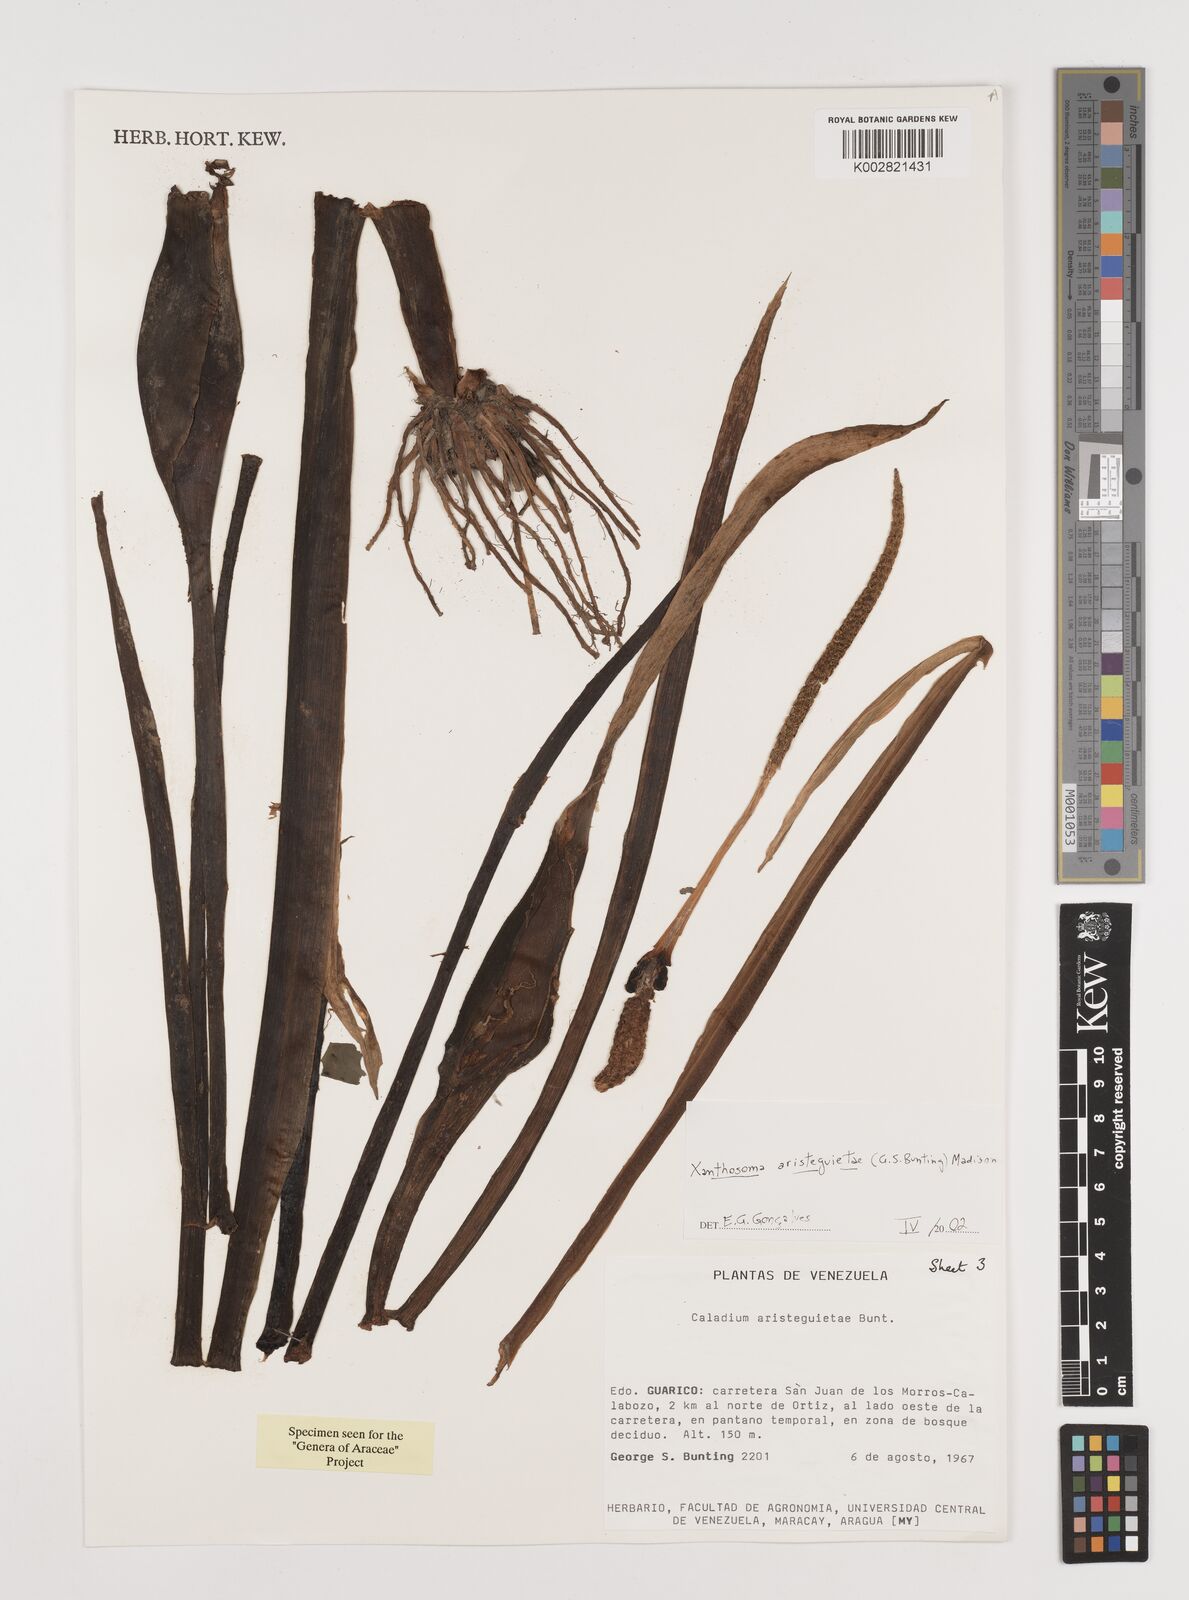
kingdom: Plantae
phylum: Tracheophyta
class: Liliopsida
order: Alismatales
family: Araceae
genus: Xanthosoma
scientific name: Xanthosoma aristeguietae
